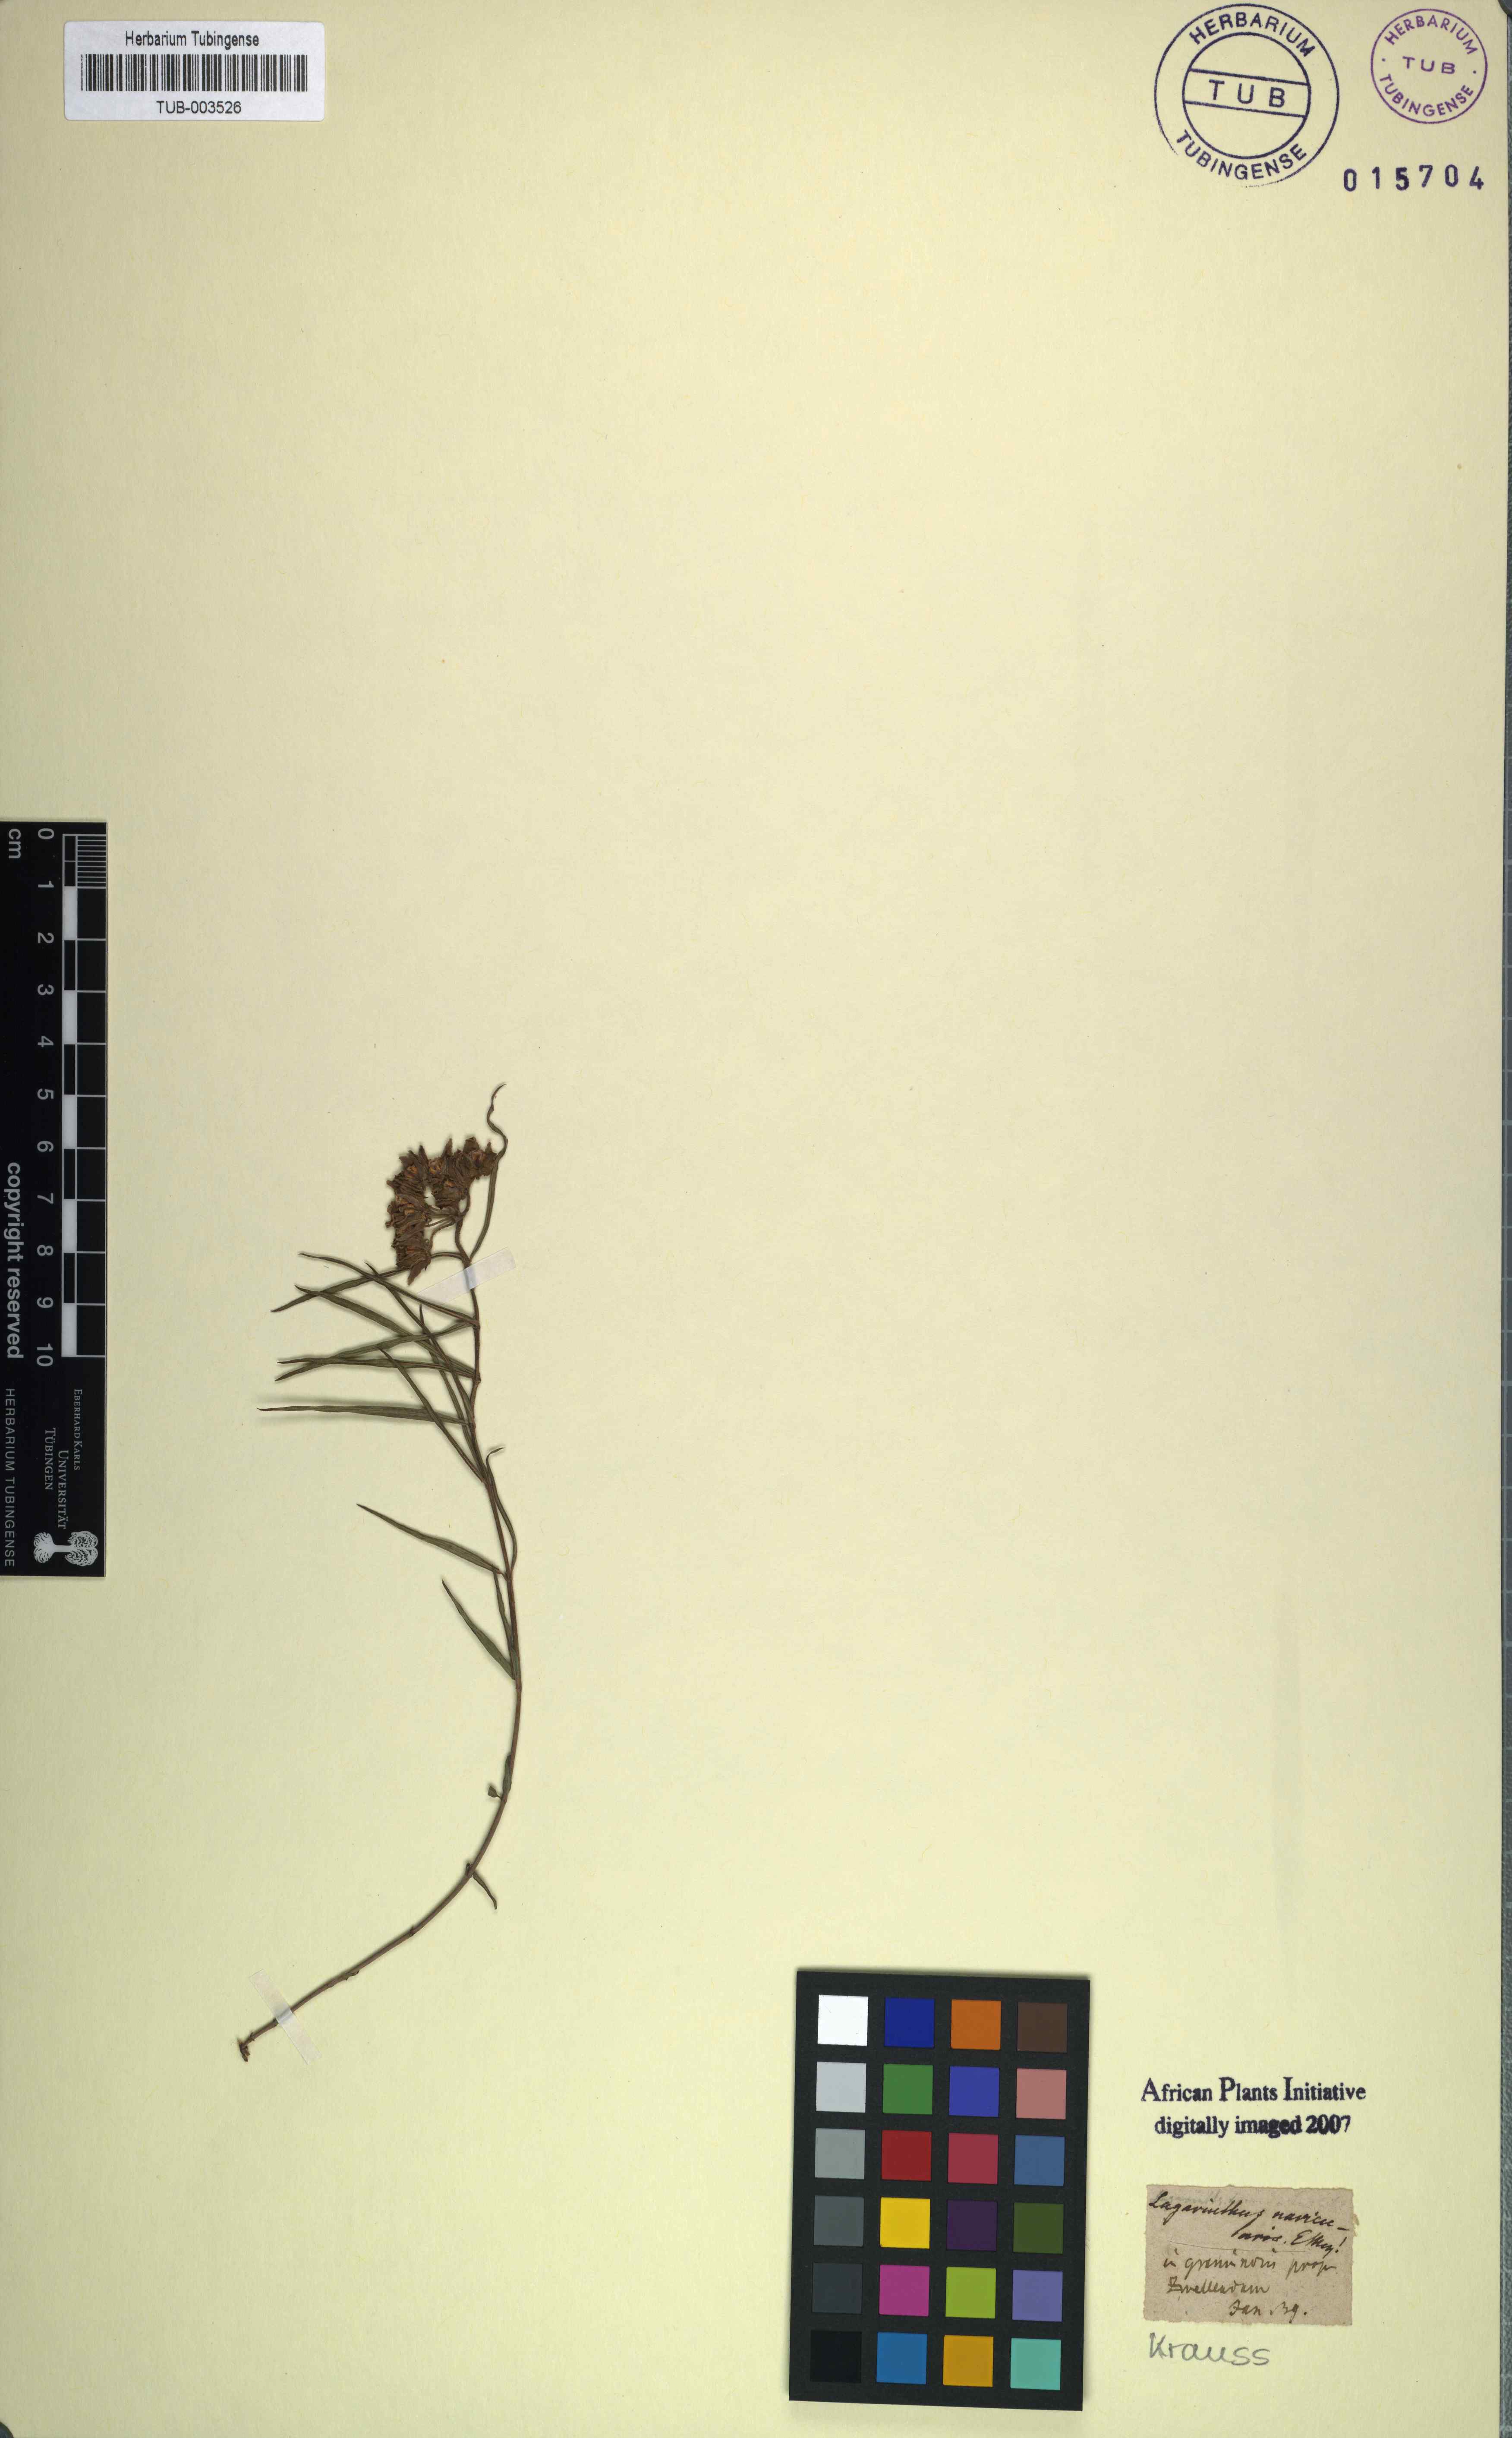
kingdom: Plantae
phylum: Tracheophyta
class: Magnoliopsida
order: Gentianales
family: Apocynaceae
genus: Asclepias
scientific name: Asclepias navicularis
